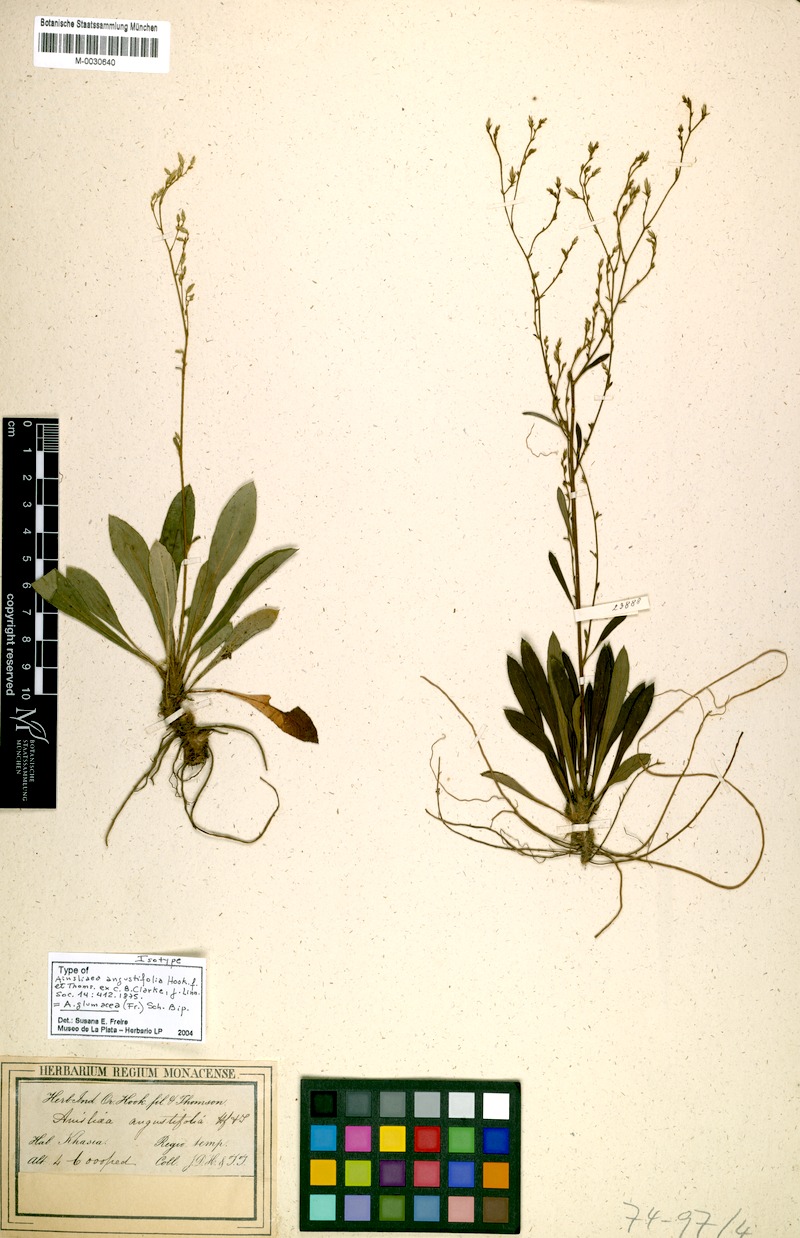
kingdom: Plantae
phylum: Tracheophyta
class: Magnoliopsida
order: Asterales
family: Asteraceae
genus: Ainsliaea
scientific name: Ainsliaea angustifolia
